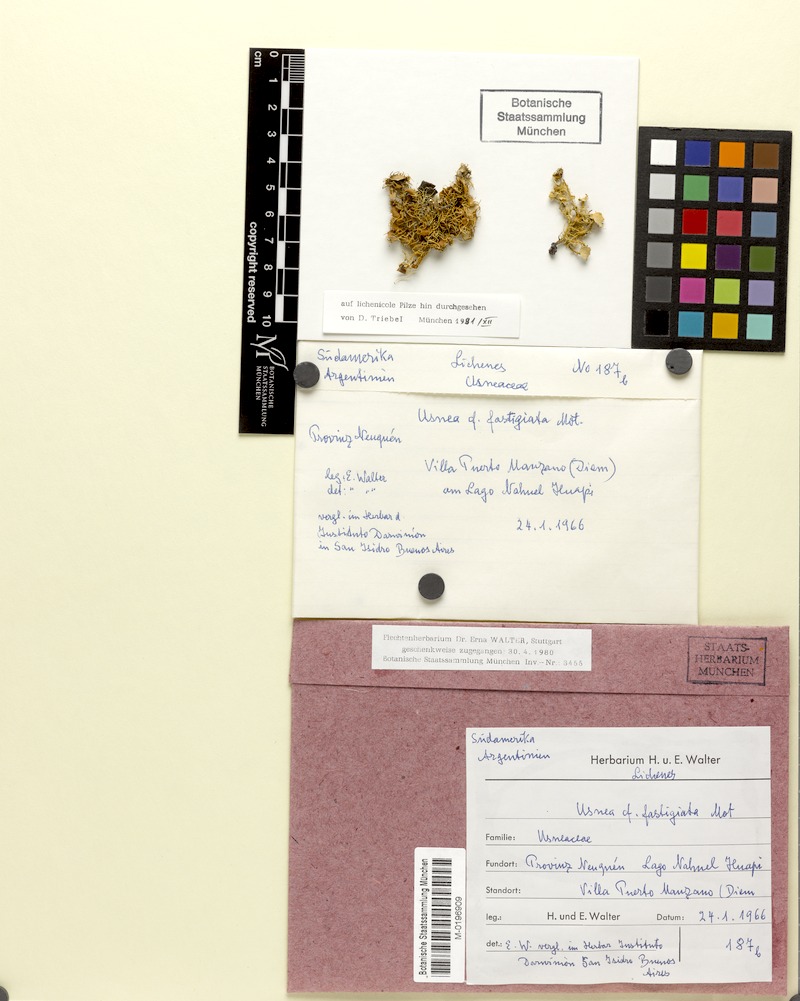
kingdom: Fungi
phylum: Ascomycota
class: Lecanoromycetes
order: Lecanorales
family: Parmeliaceae
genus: Usnea
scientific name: Usnea fastigiata
